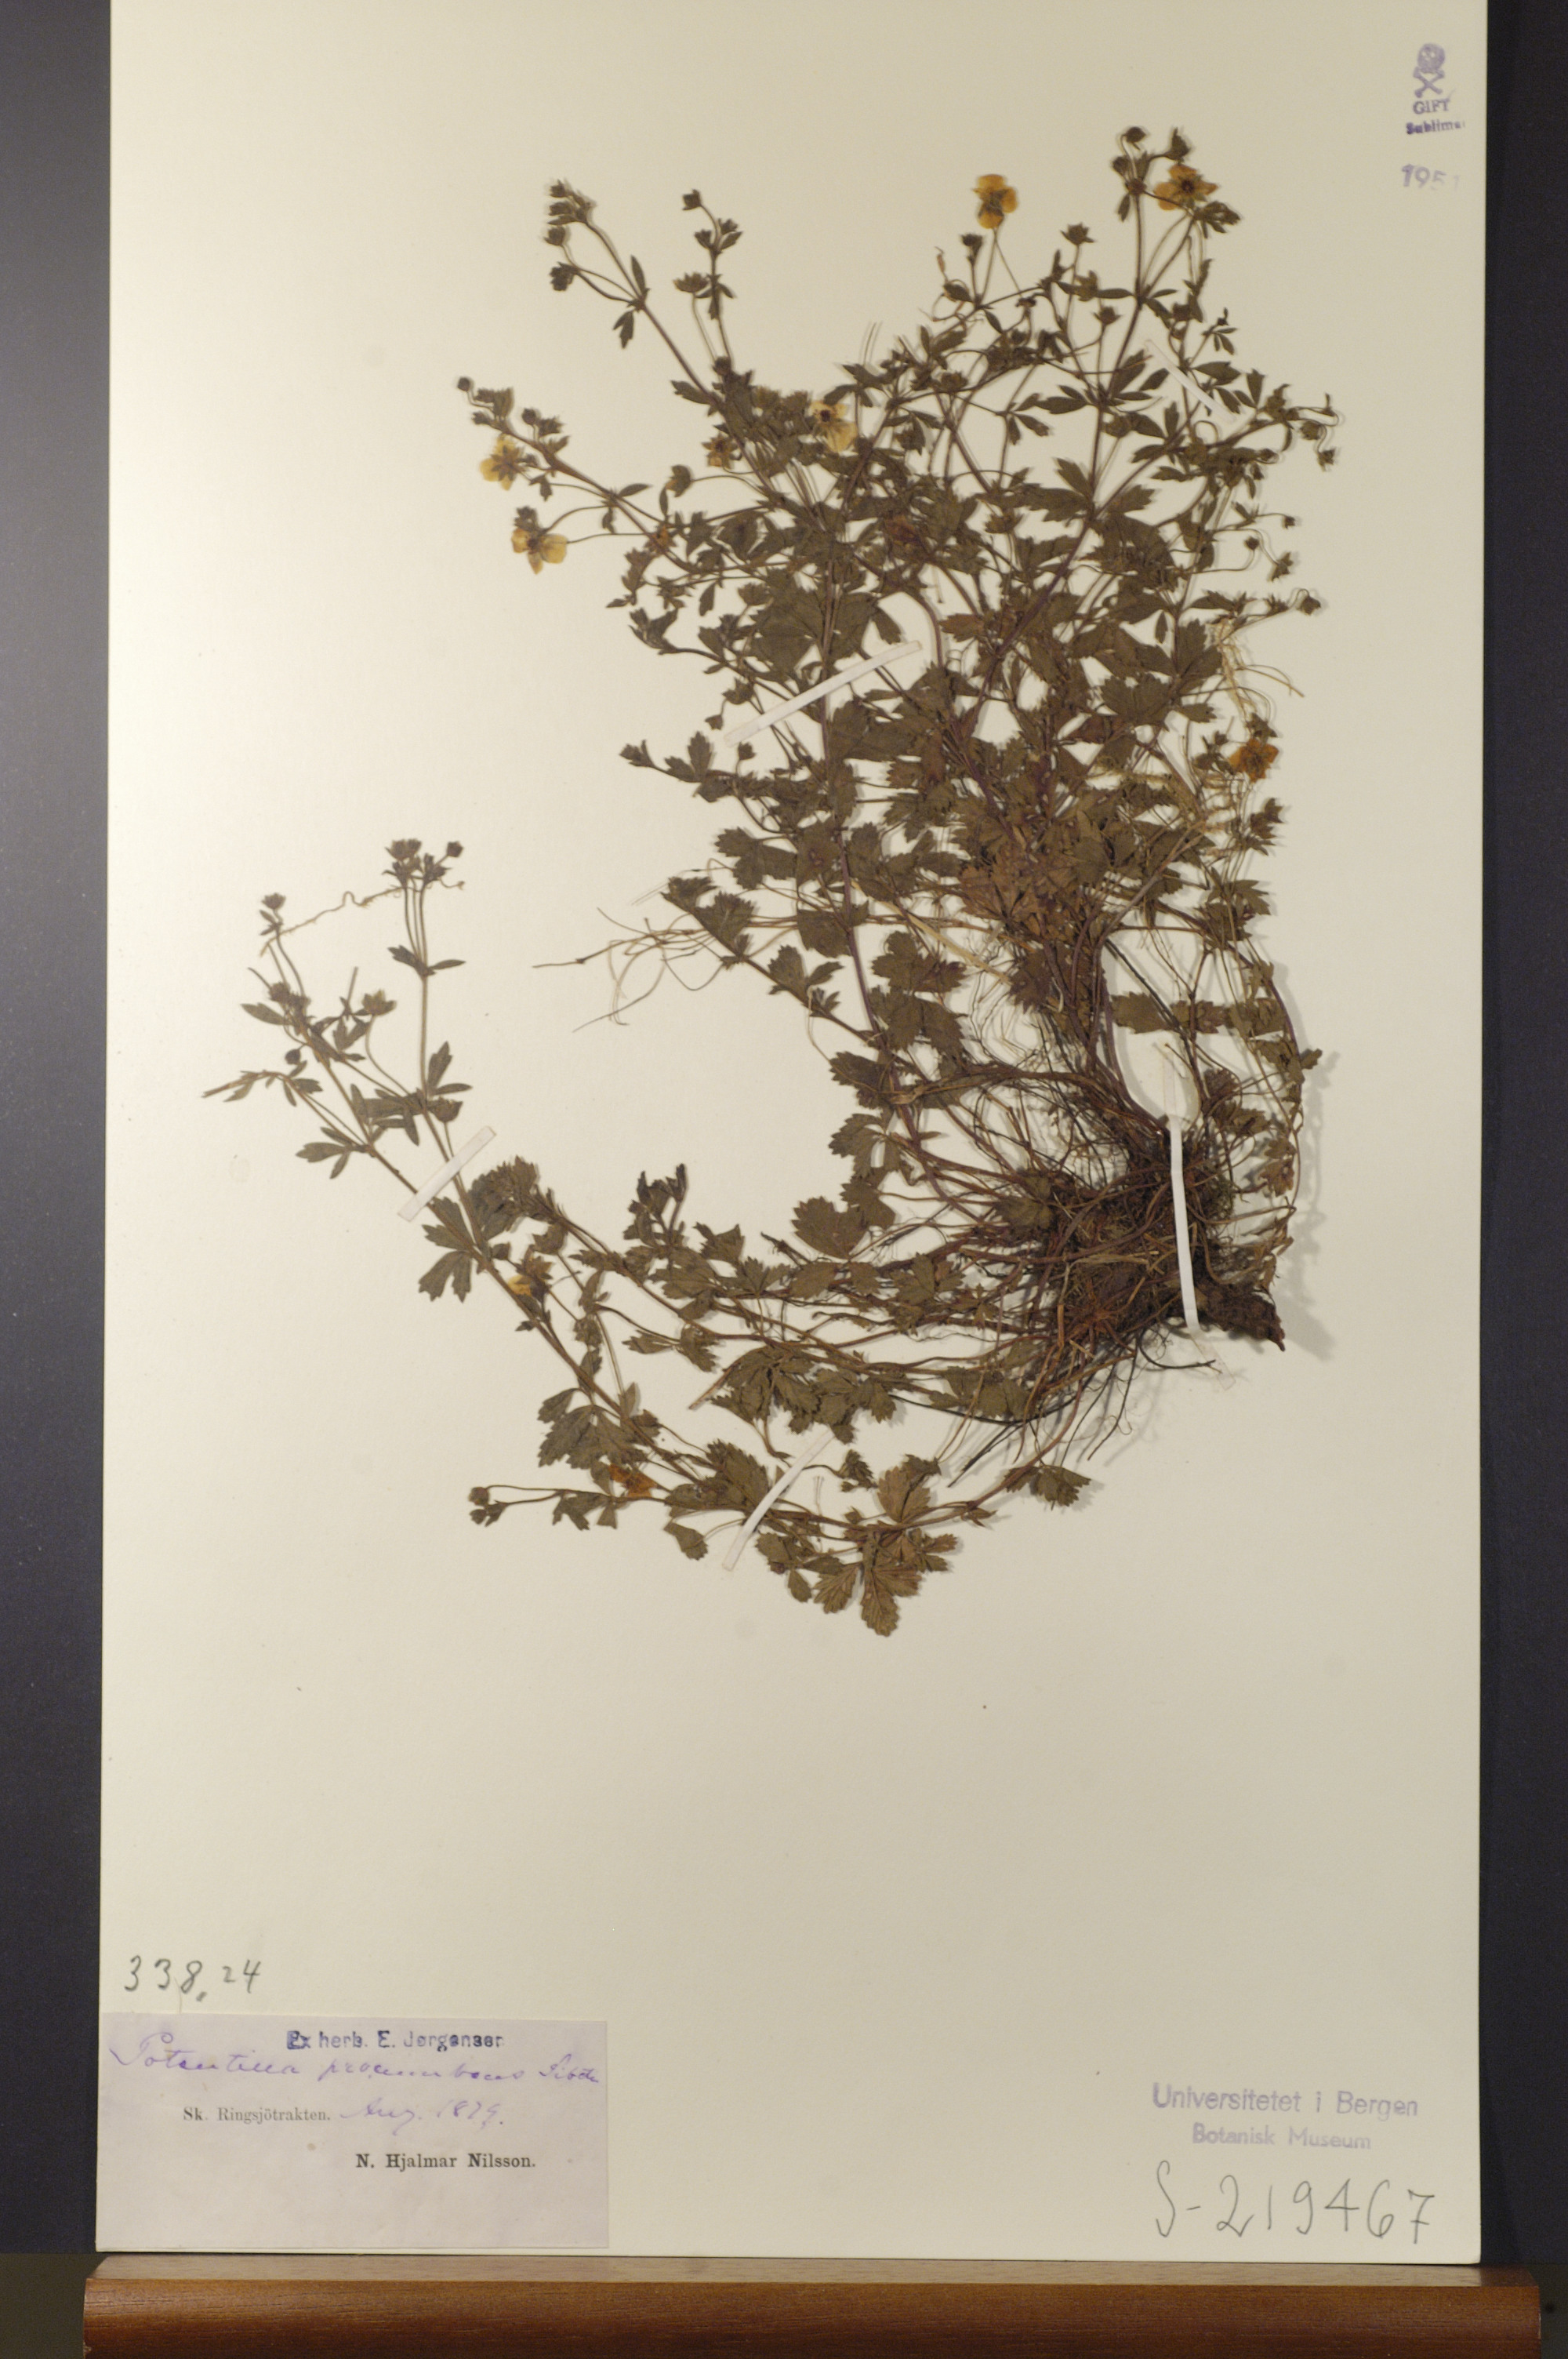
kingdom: Plantae
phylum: Tracheophyta
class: Magnoliopsida
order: Rosales
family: Rosaceae
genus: Potentilla
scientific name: Potentilla anglica
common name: Trailing tormentil
